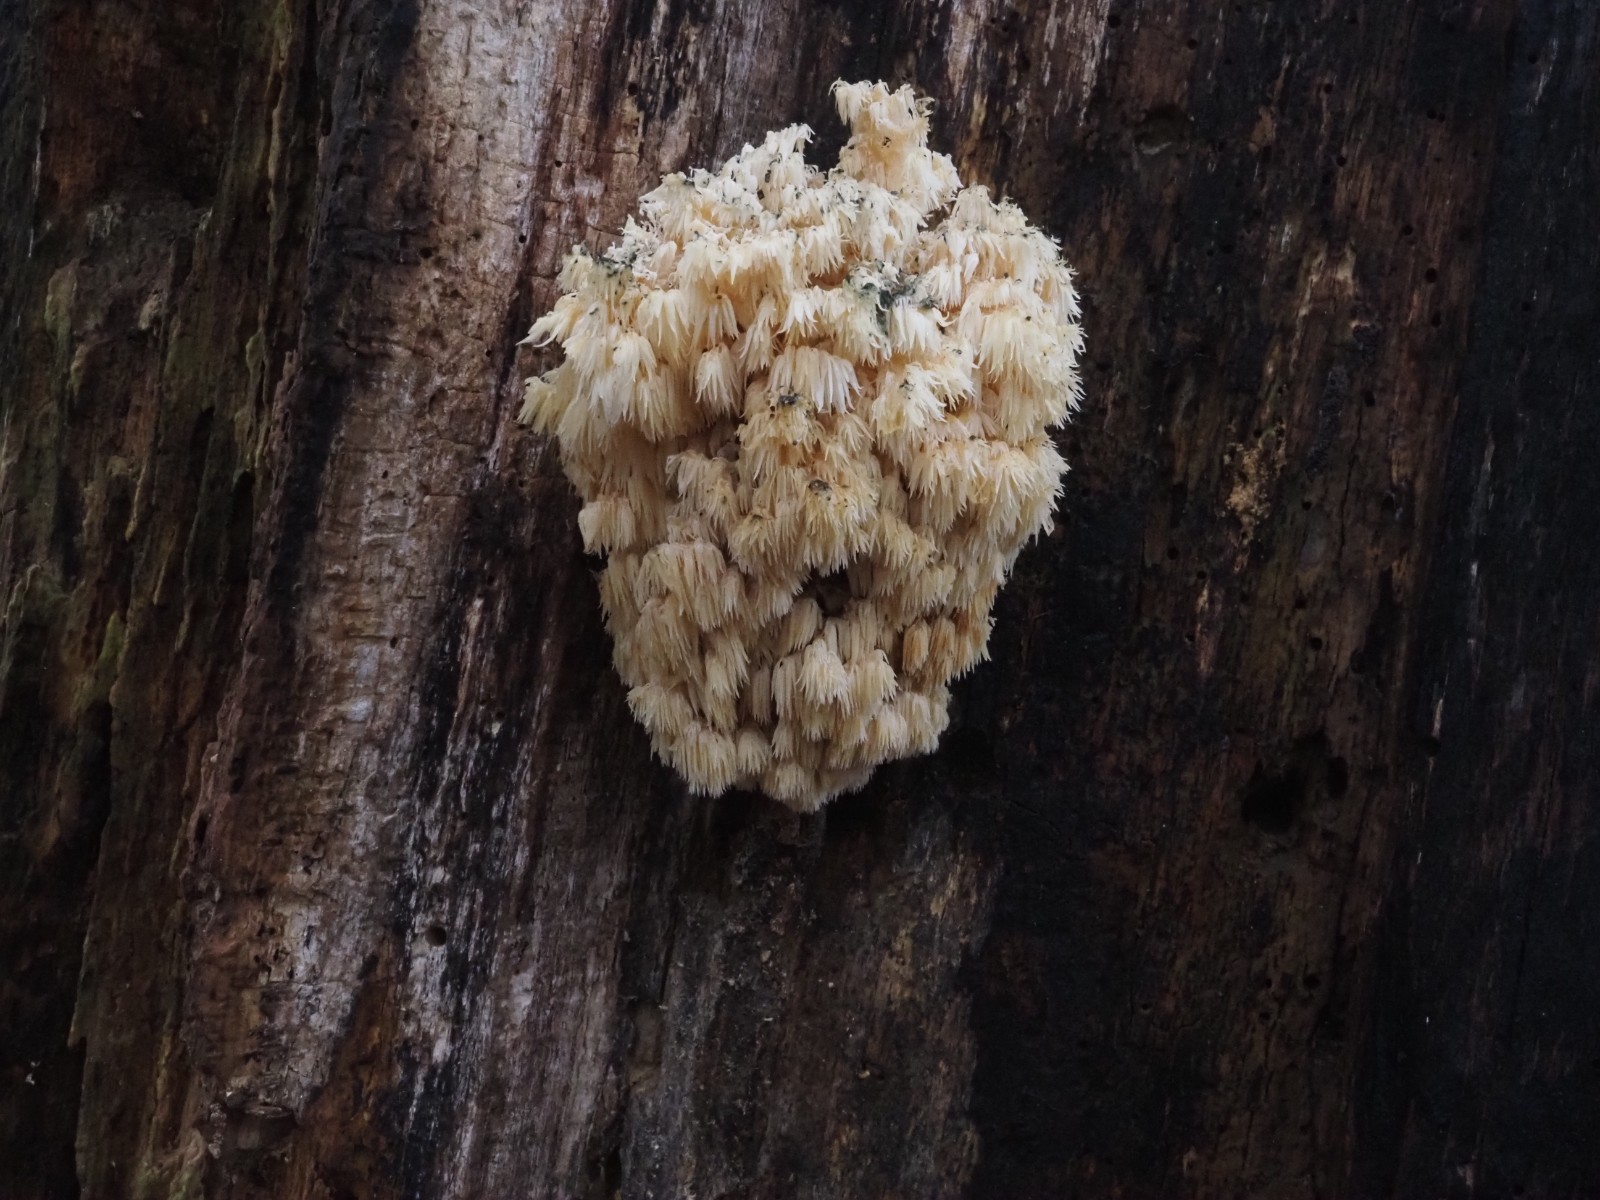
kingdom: Fungi
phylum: Basidiomycota
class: Agaricomycetes
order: Russulales
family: Hericiaceae
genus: Hericium
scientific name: Hericium coralloides
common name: koralpigsvamp
